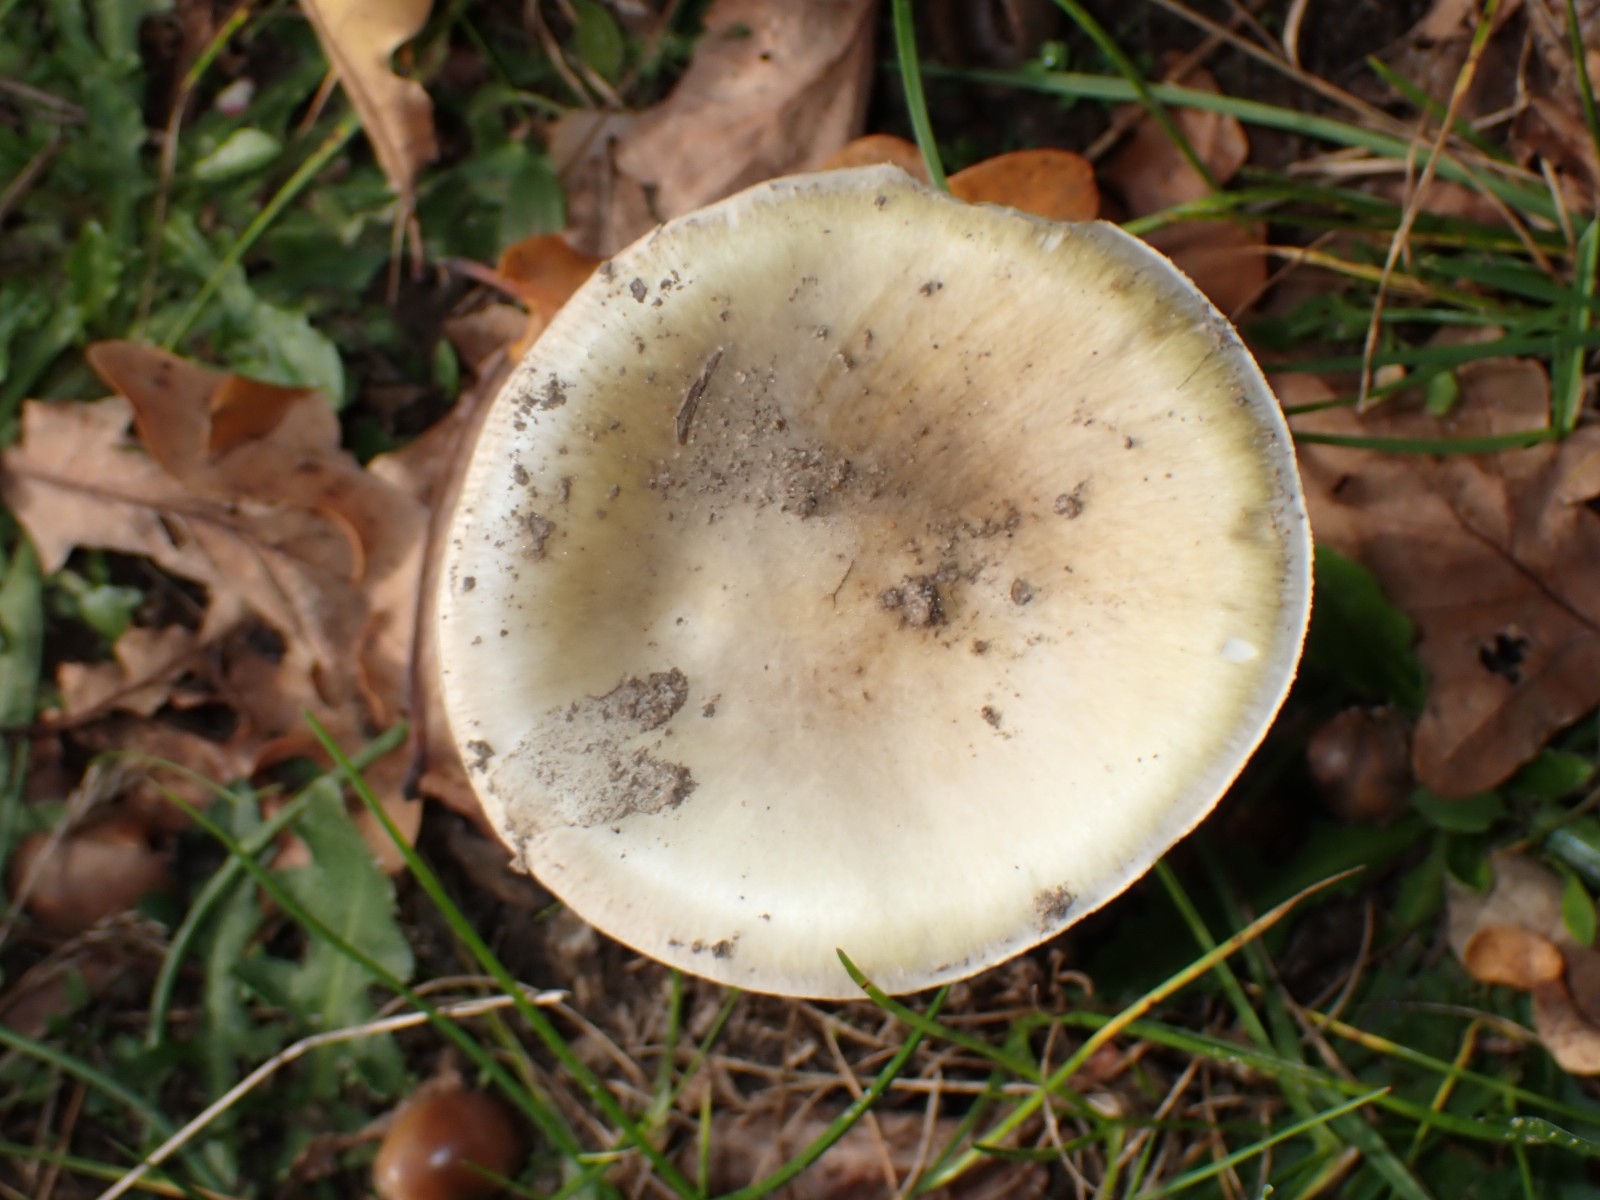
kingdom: Fungi
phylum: Basidiomycota
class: Agaricomycetes
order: Agaricales
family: Amanitaceae
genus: Amanita
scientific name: Amanita gemmata
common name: okkergul fluesvamp
